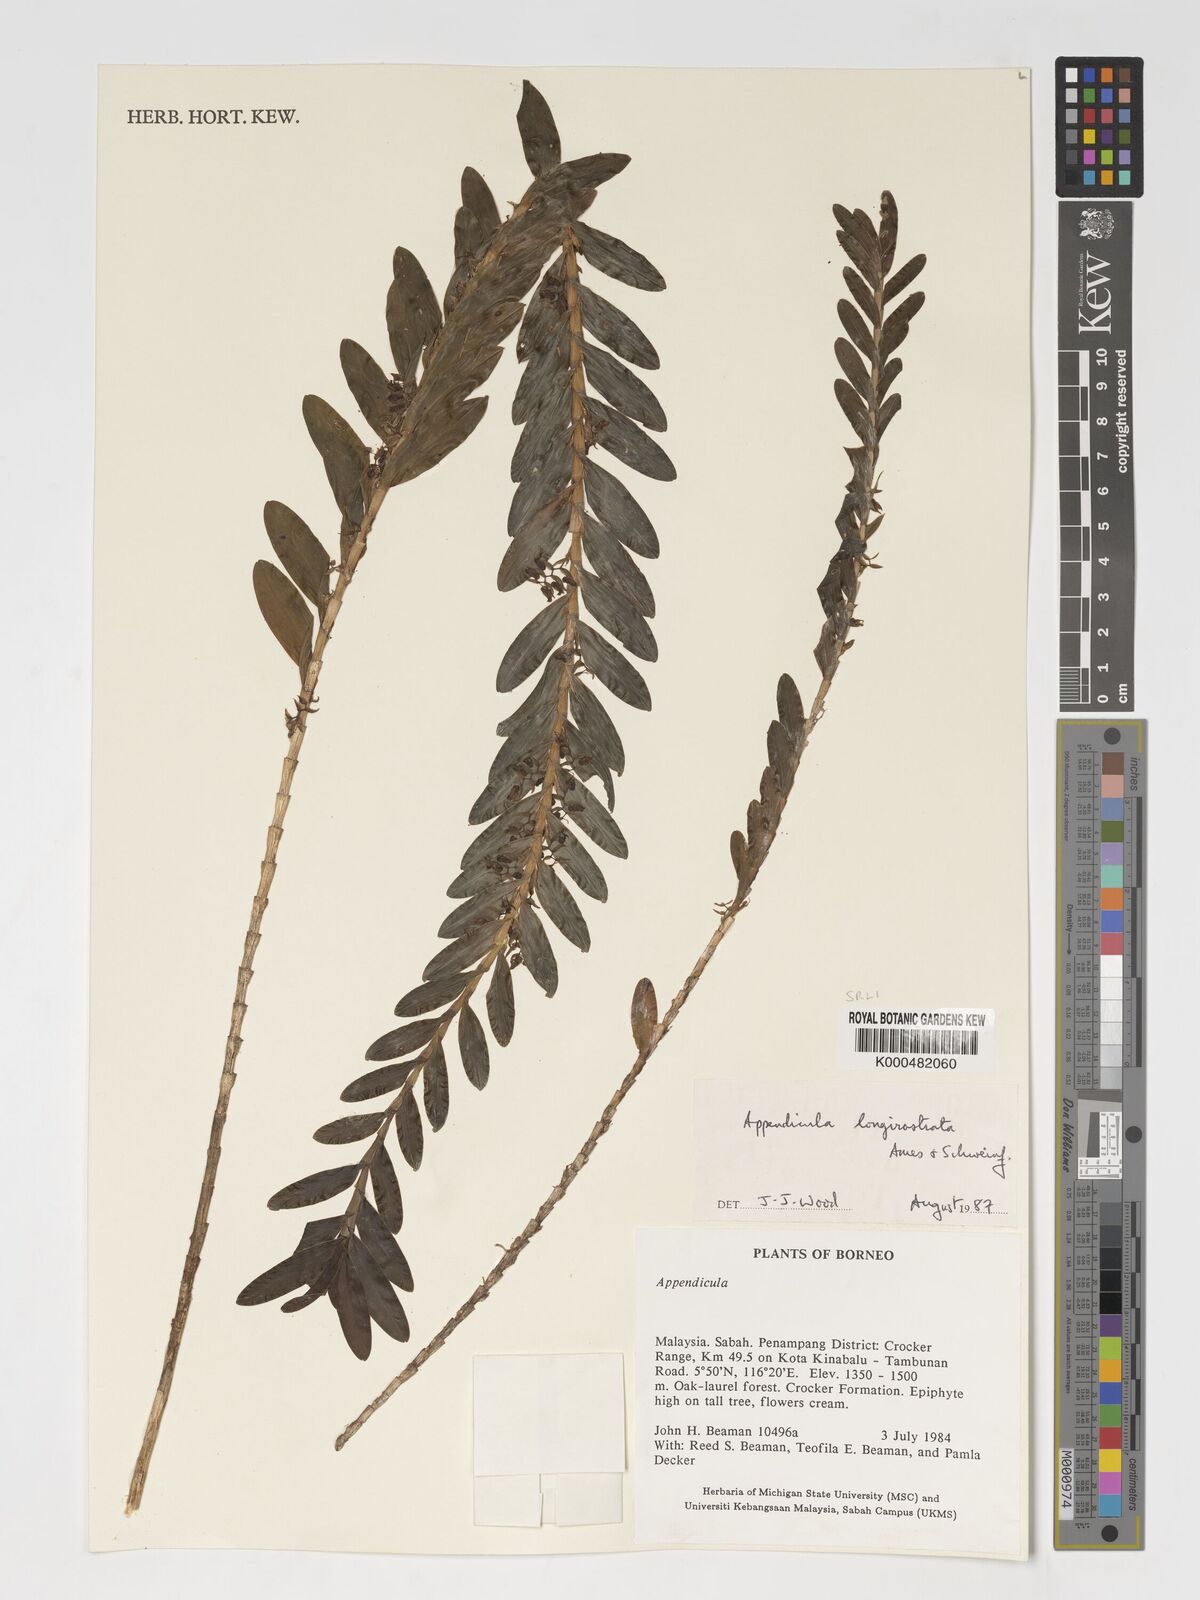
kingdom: Plantae
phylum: Tracheophyta
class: Liliopsida
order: Asparagales
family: Orchidaceae
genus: Appendicula
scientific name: Appendicula longirostrata
